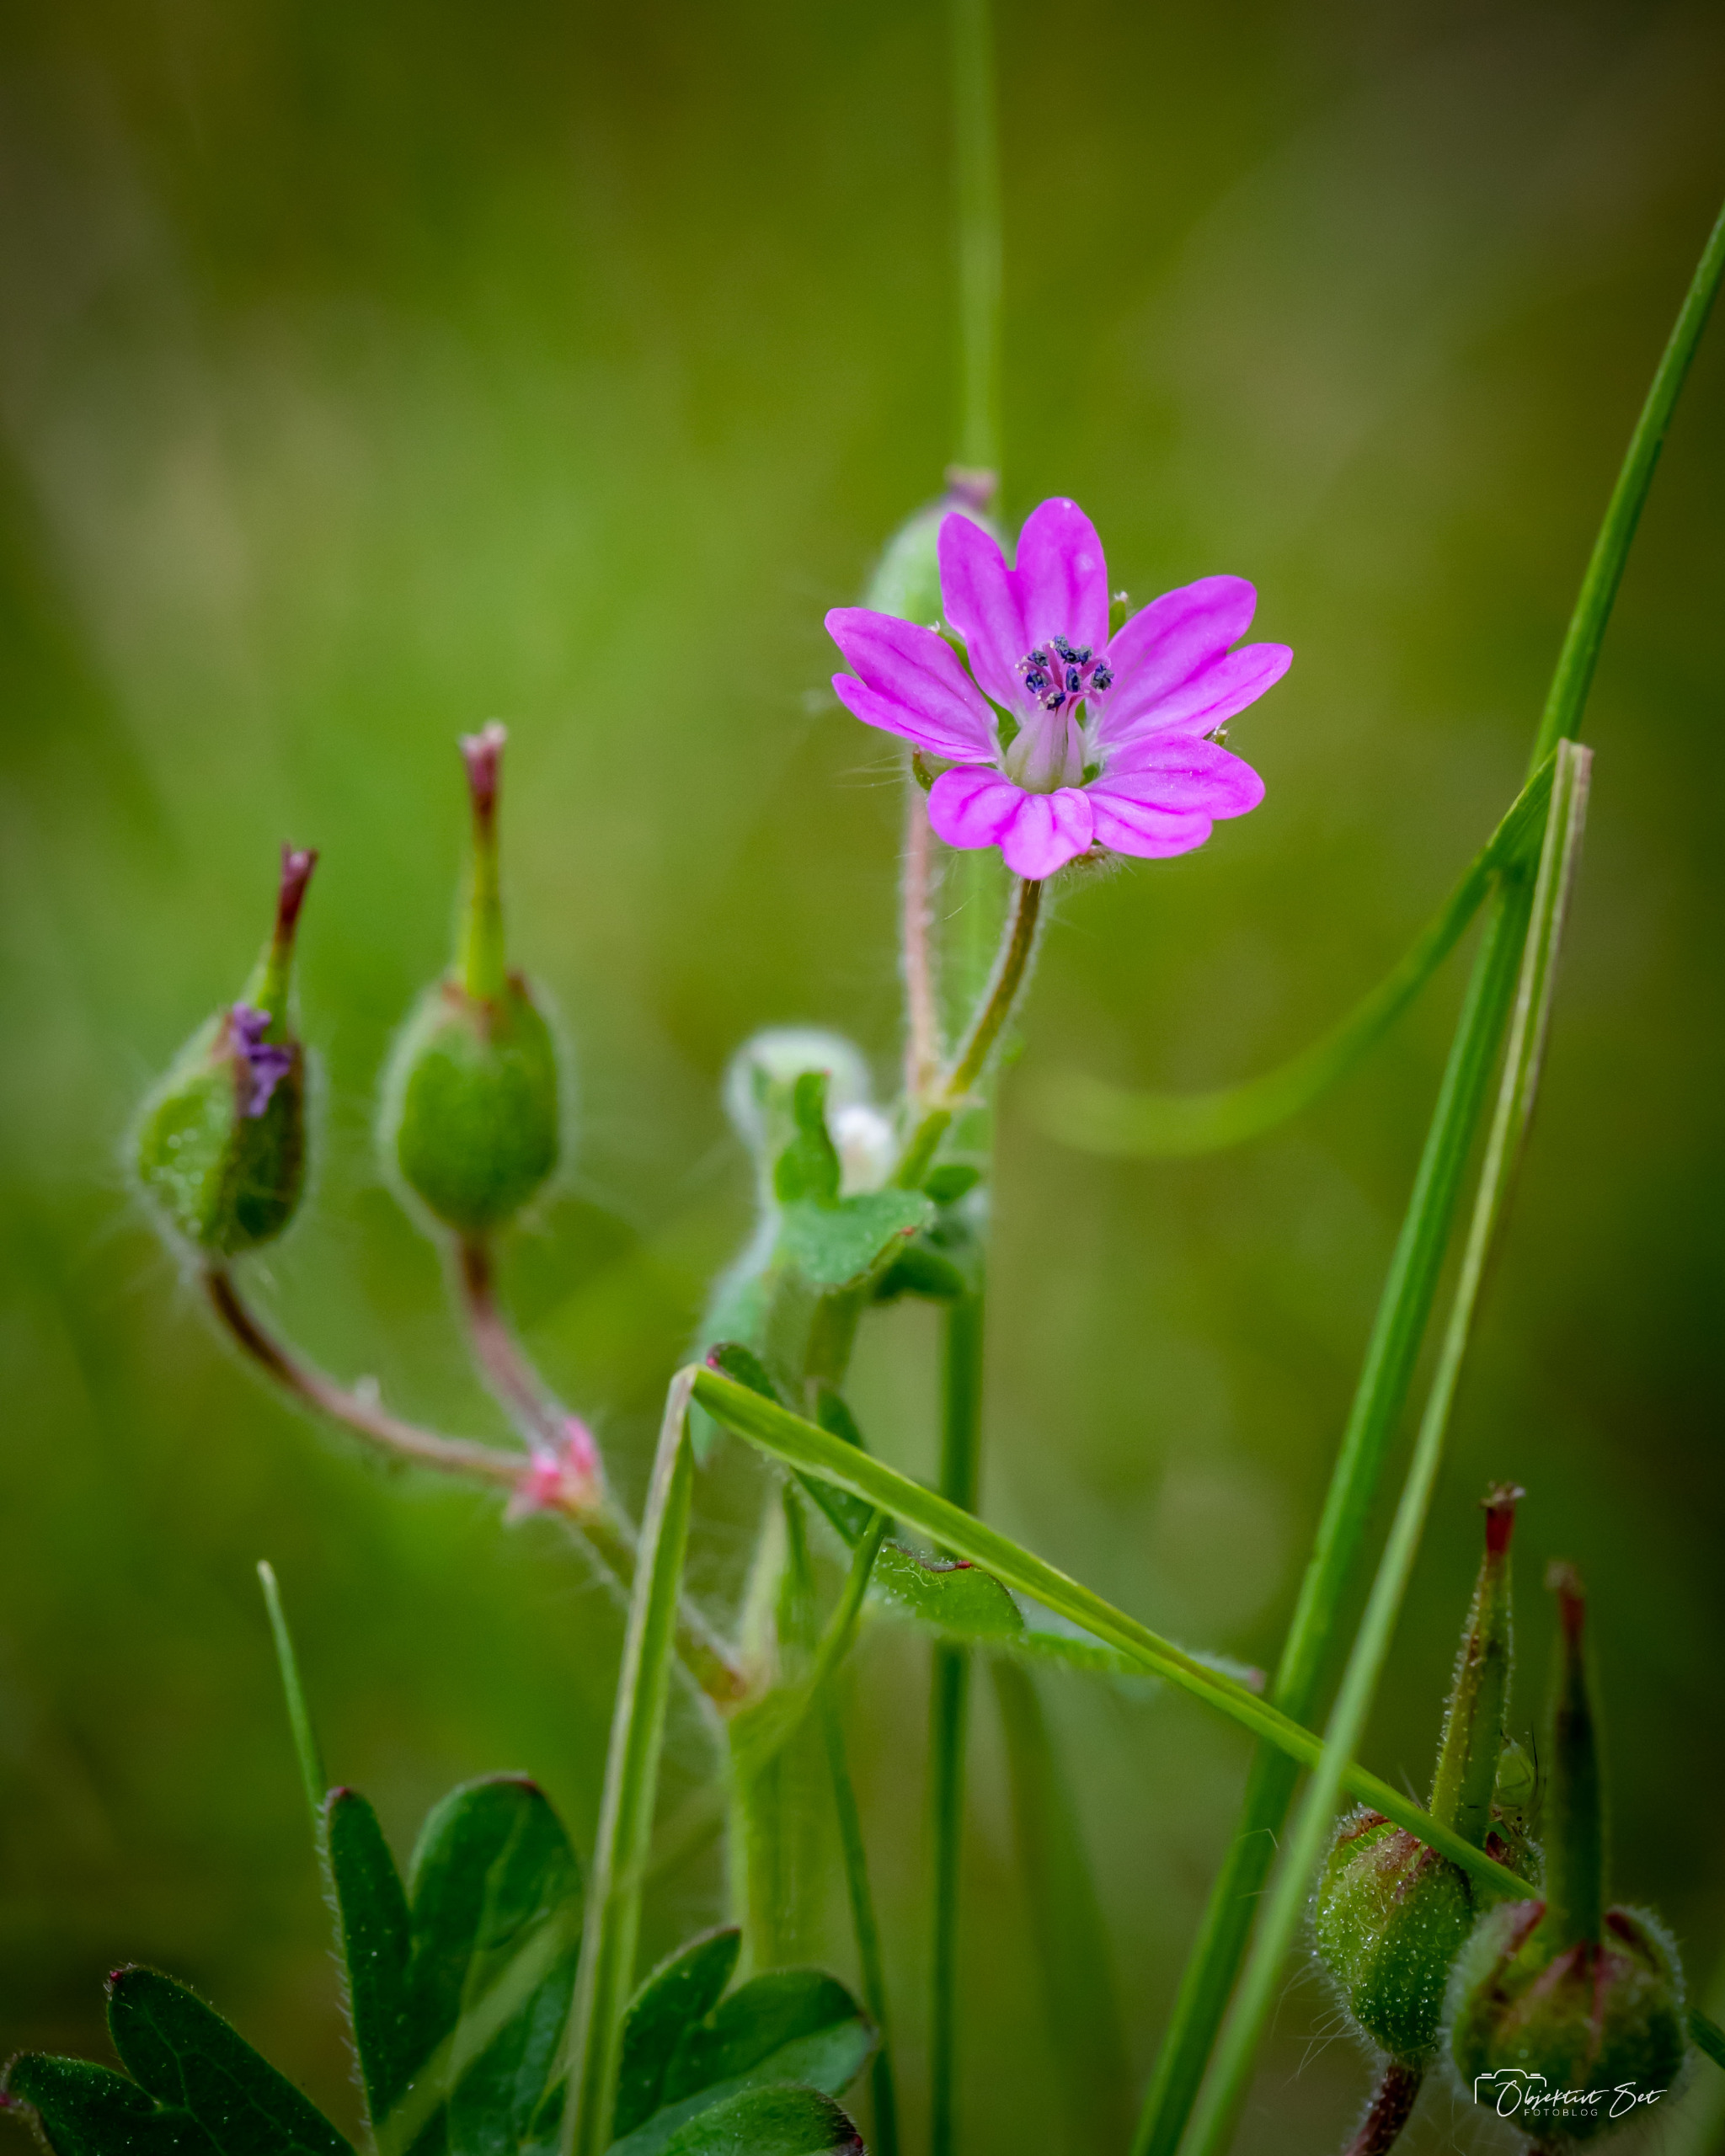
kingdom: Plantae
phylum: Tracheophyta
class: Magnoliopsida
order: Geraniales
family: Geraniaceae
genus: Geranium
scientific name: Geranium molle
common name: Blød storkenæb
